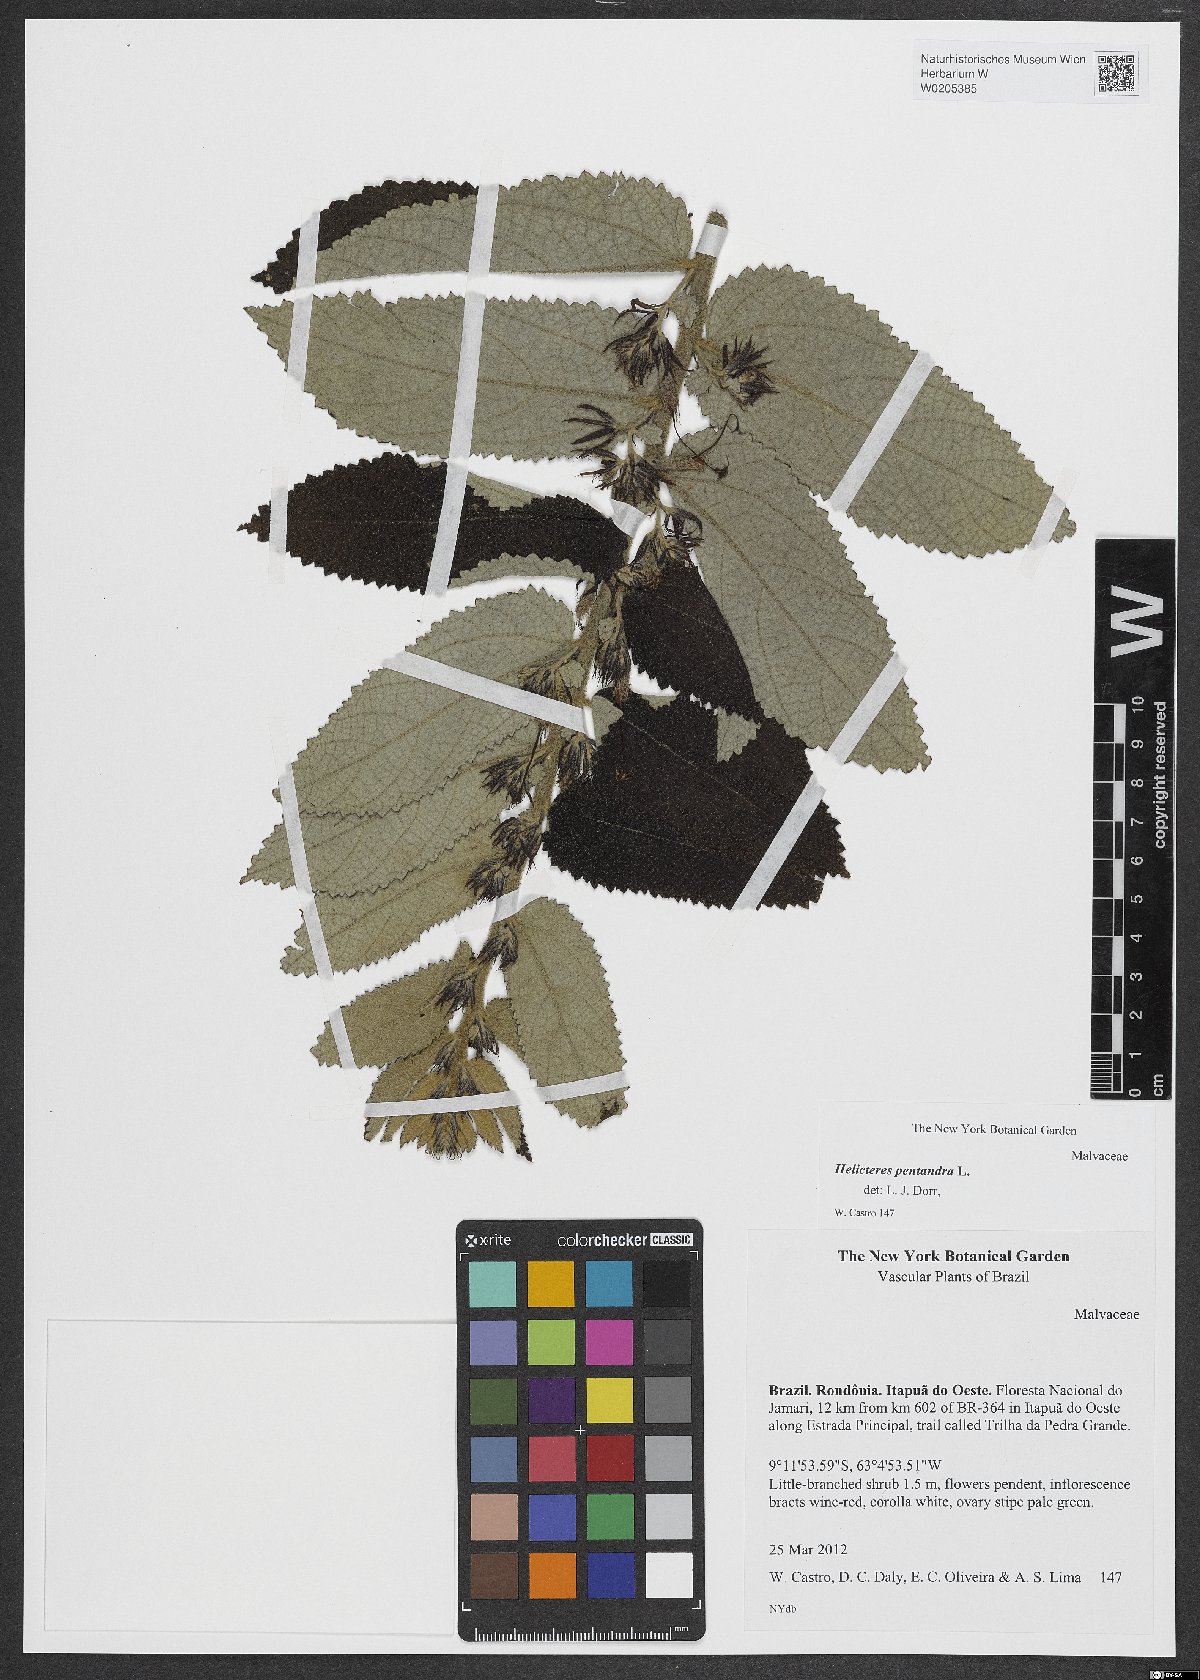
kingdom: Plantae
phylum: Tracheophyta
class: Magnoliopsida
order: Malvales
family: Malvaceae
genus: Helicteres
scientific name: Helicteres pentandra
